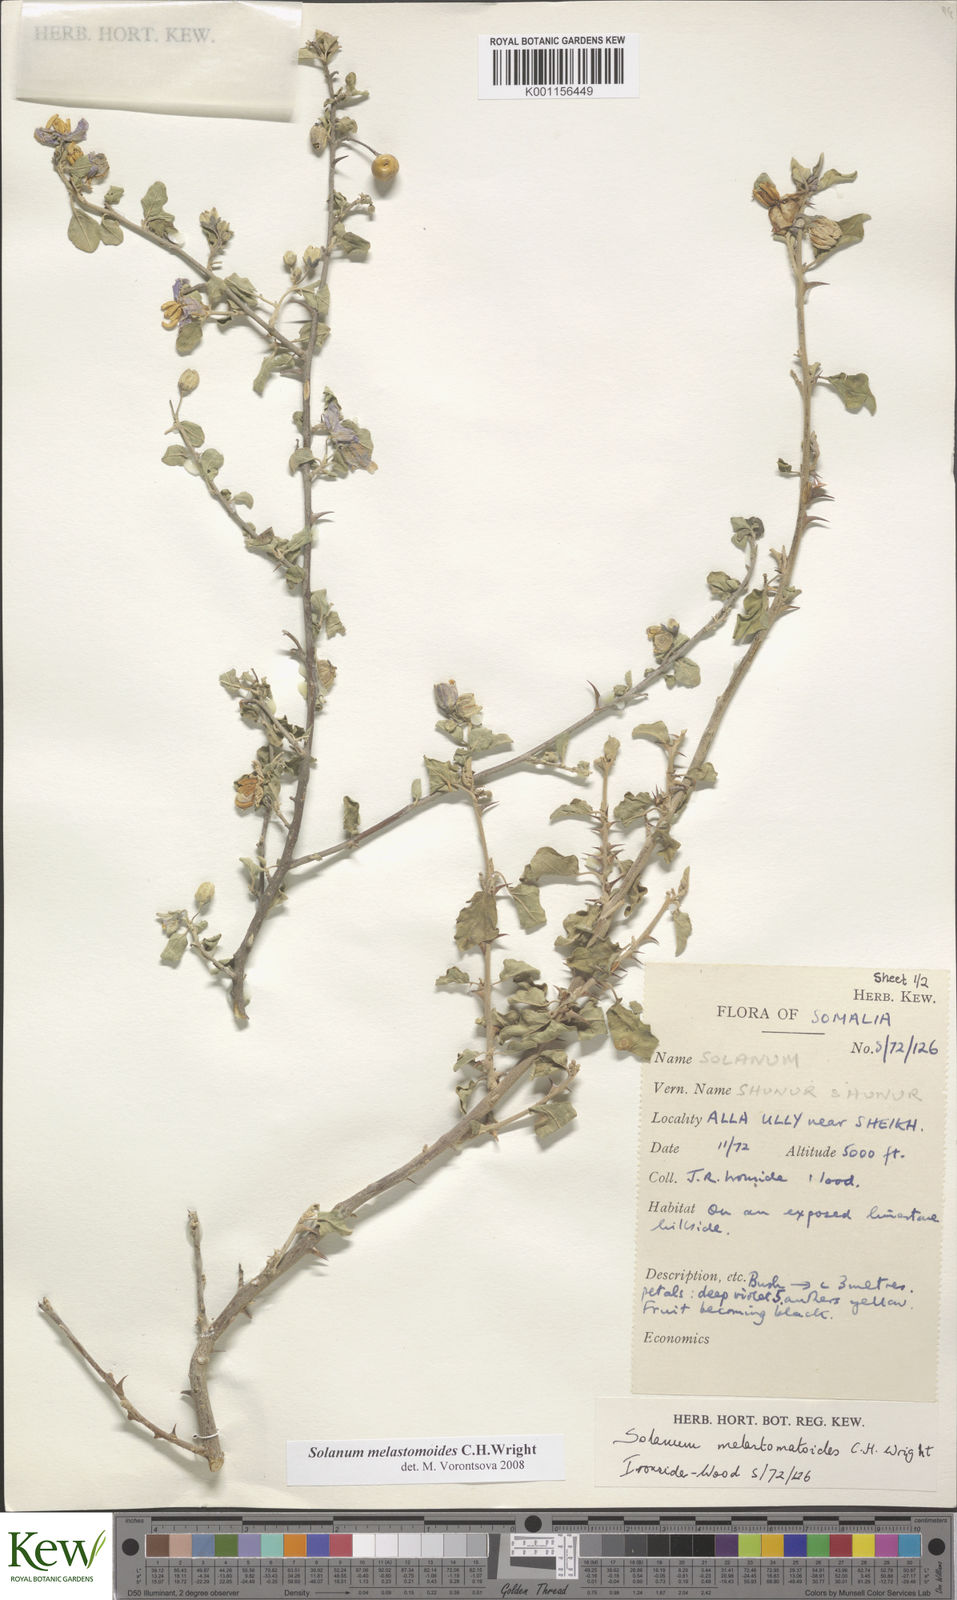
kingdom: Plantae
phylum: Tracheophyta
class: Magnoliopsida
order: Solanales
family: Solanaceae
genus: Solanum
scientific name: Solanum melastomoides
